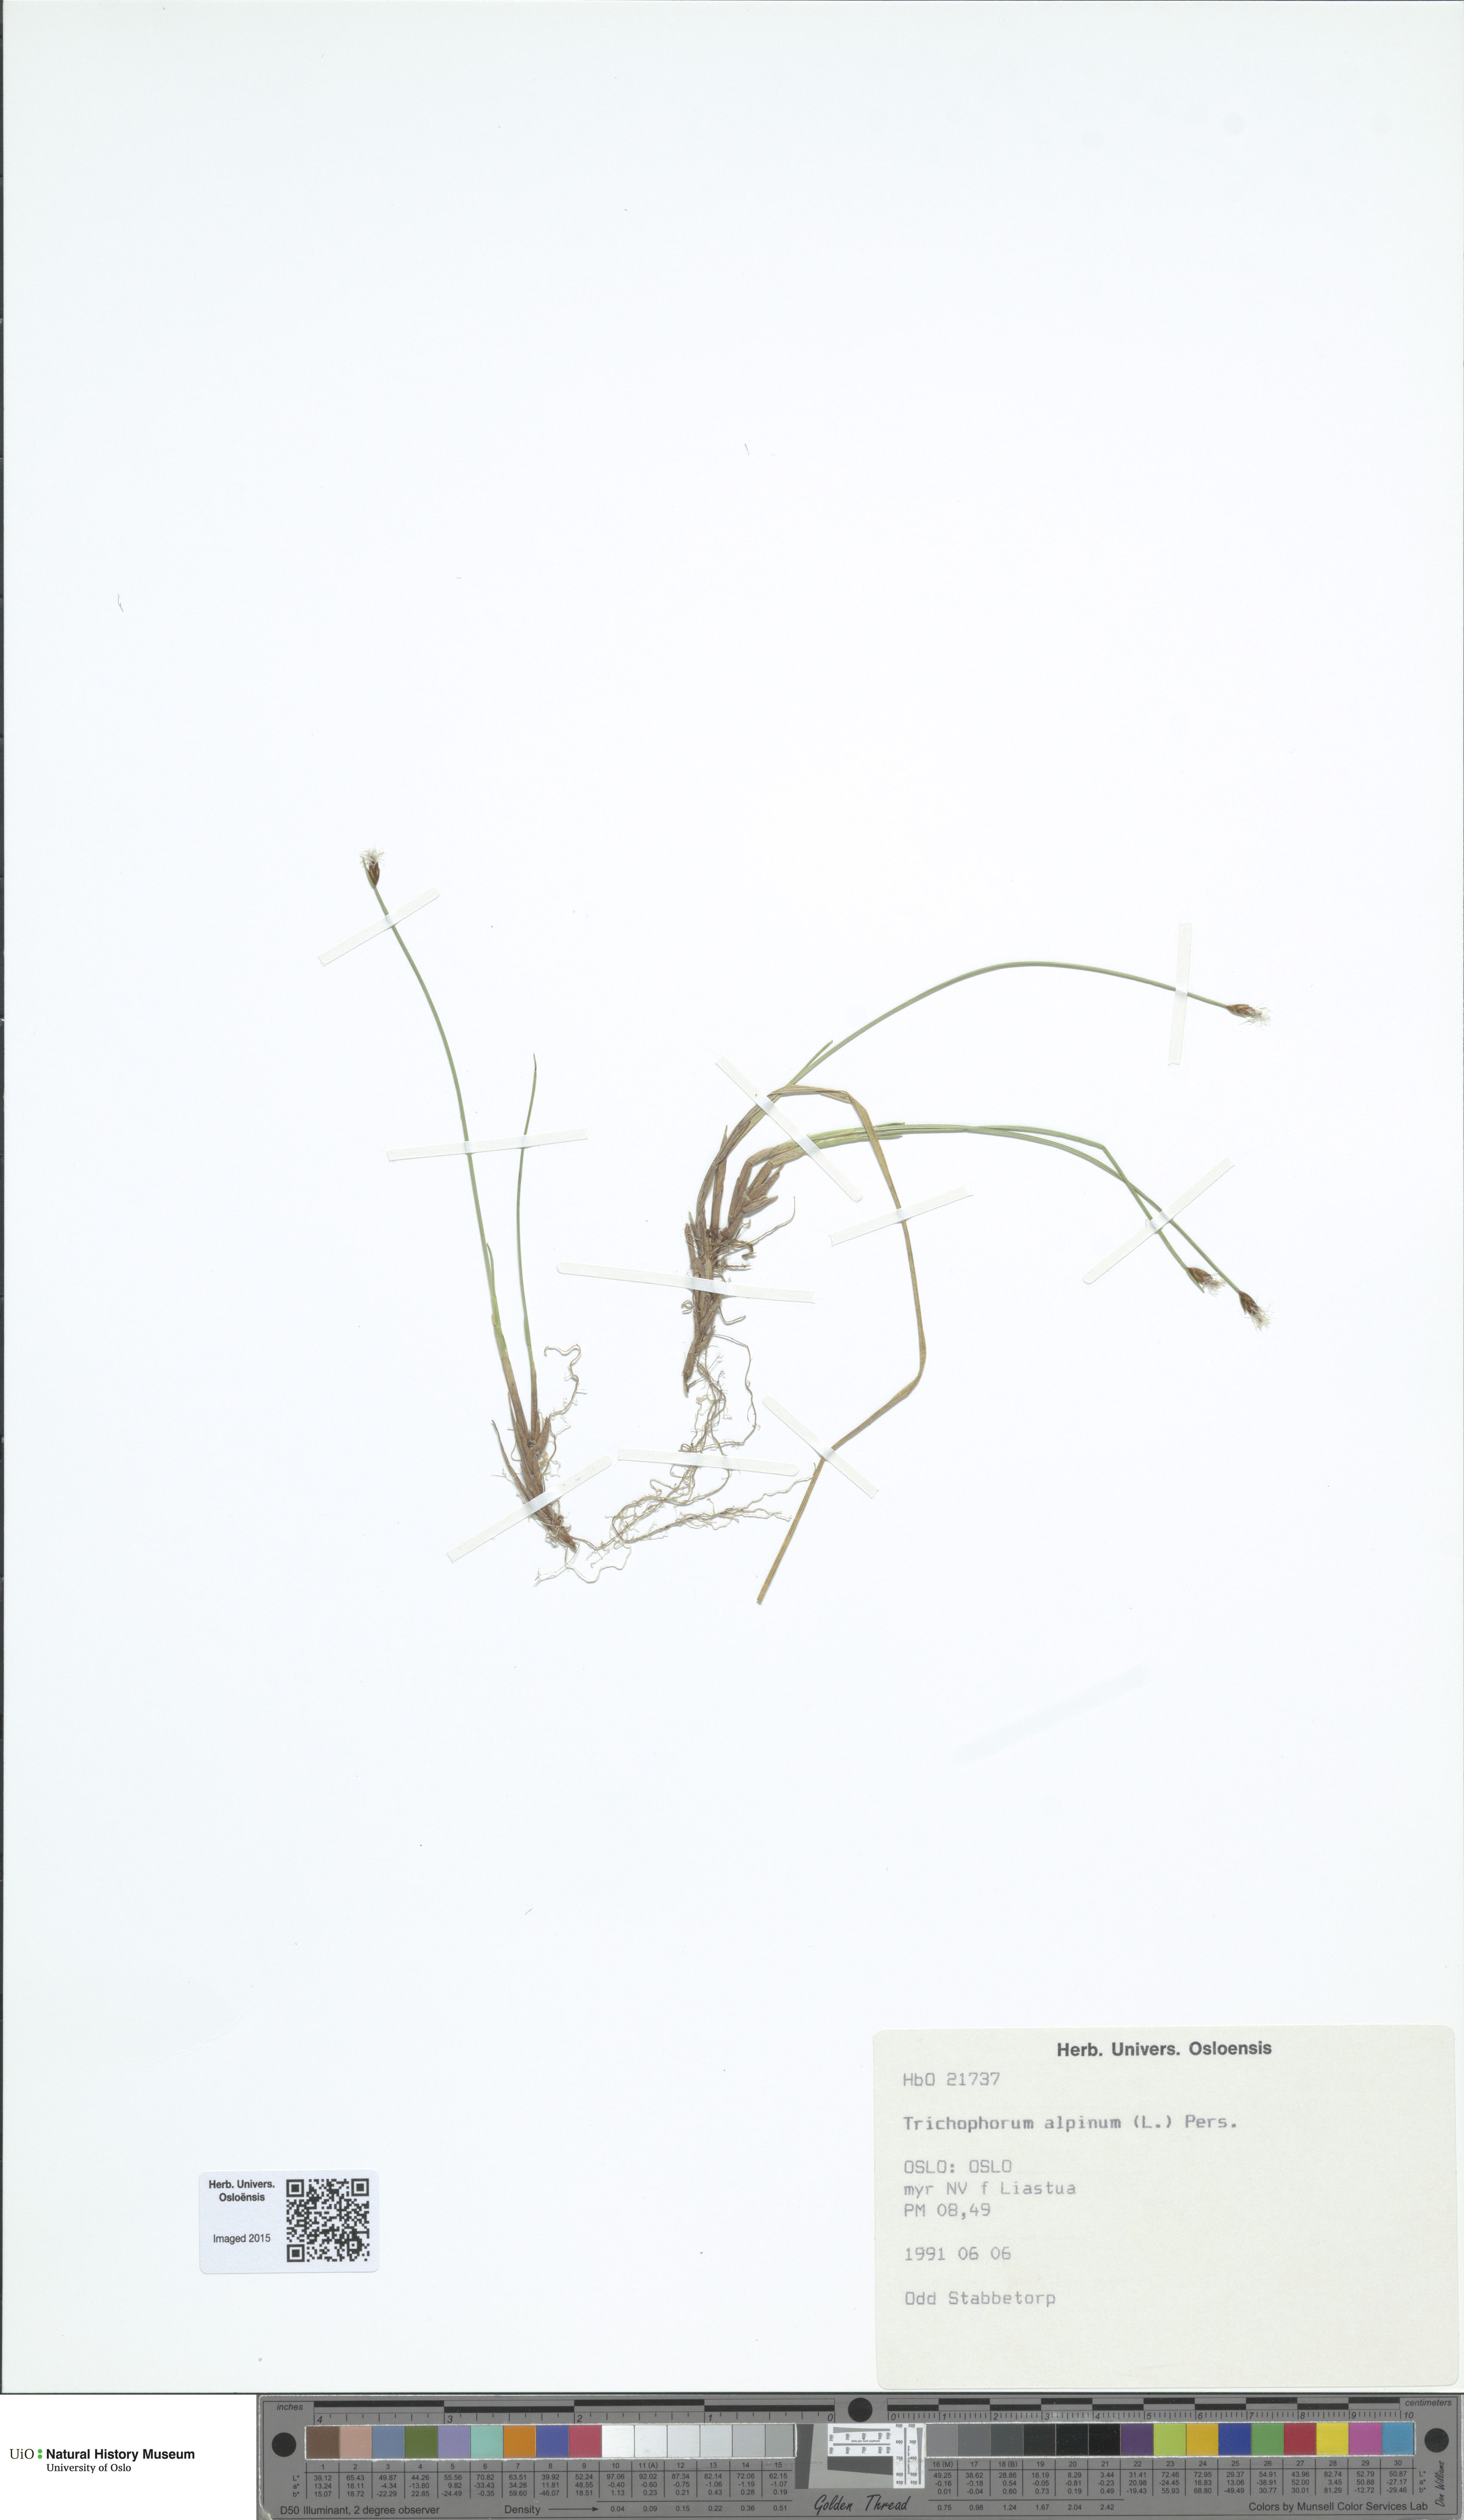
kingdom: Plantae
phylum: Tracheophyta
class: Liliopsida
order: Poales
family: Cyperaceae
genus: Trichophorum
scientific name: Trichophorum alpinum
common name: Alpine bulrush
